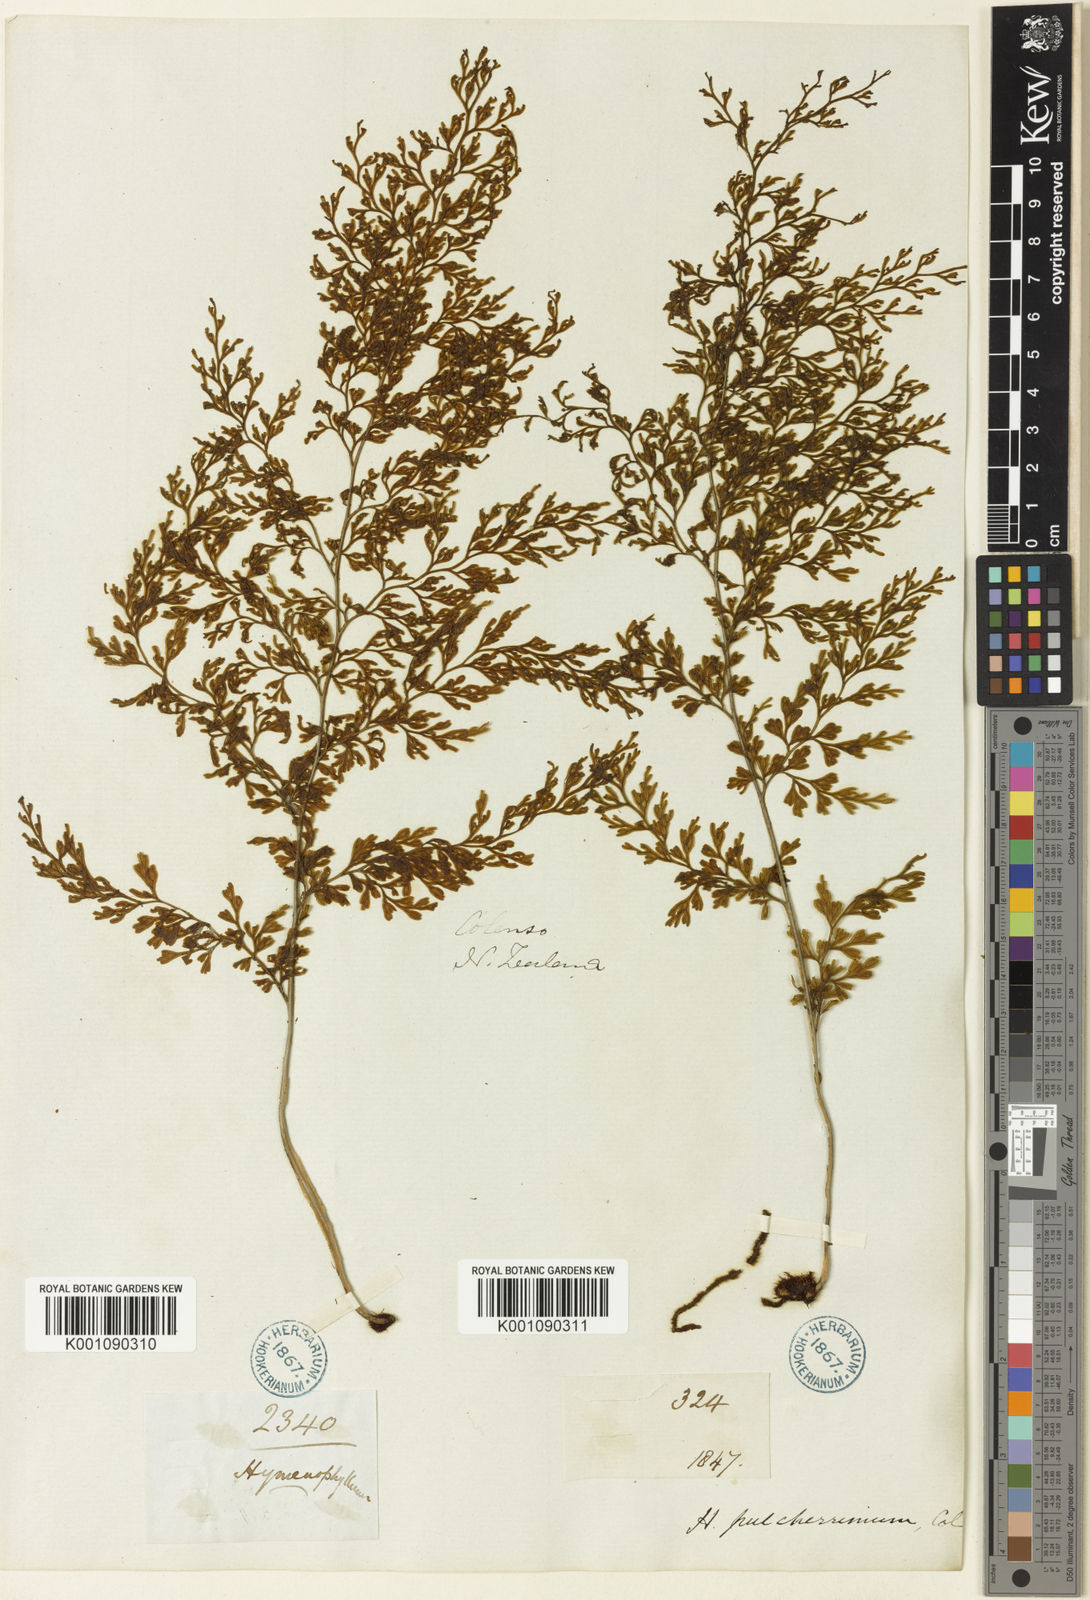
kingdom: Plantae
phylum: Tracheophyta
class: Polypodiopsida
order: Hymenophyllales
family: Hymenophyllaceae
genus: Hymenophyllum
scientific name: Hymenophyllum pulcherrimum
